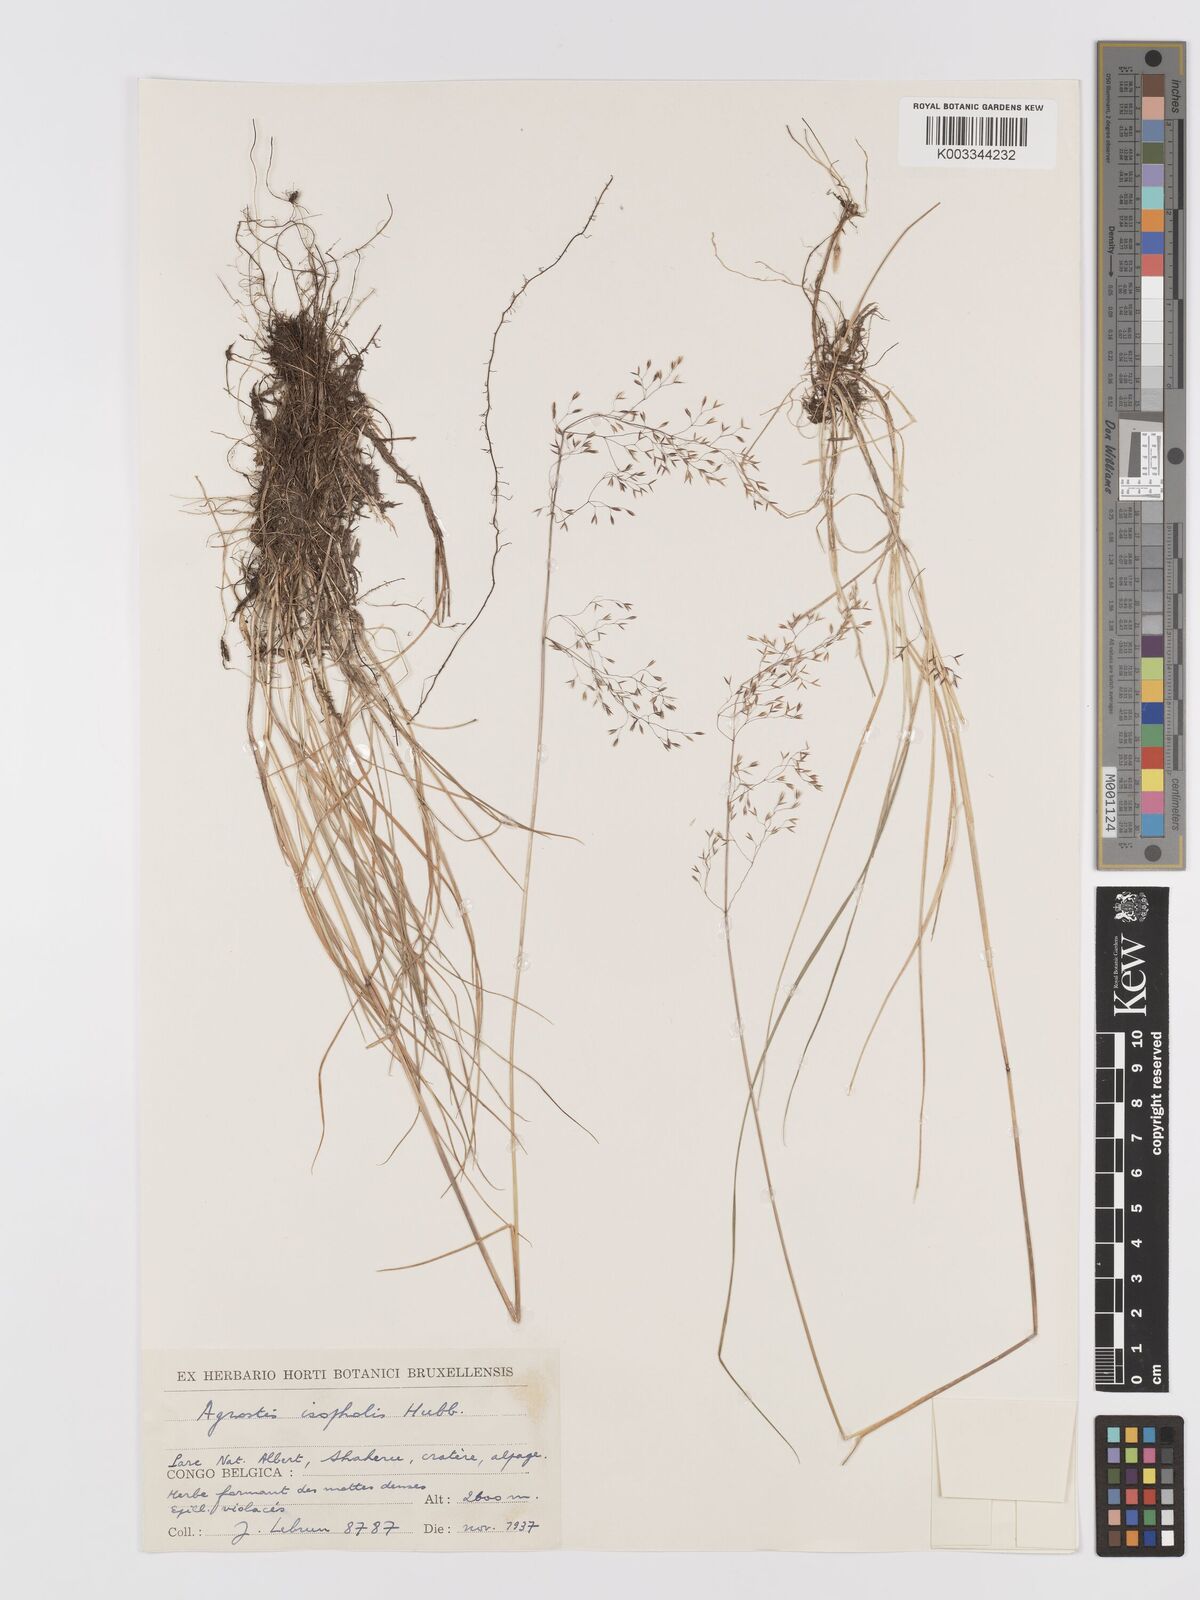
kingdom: Plantae
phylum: Tracheophyta
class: Liliopsida
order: Poales
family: Poaceae
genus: Agrostis
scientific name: Agrostis isopholis
